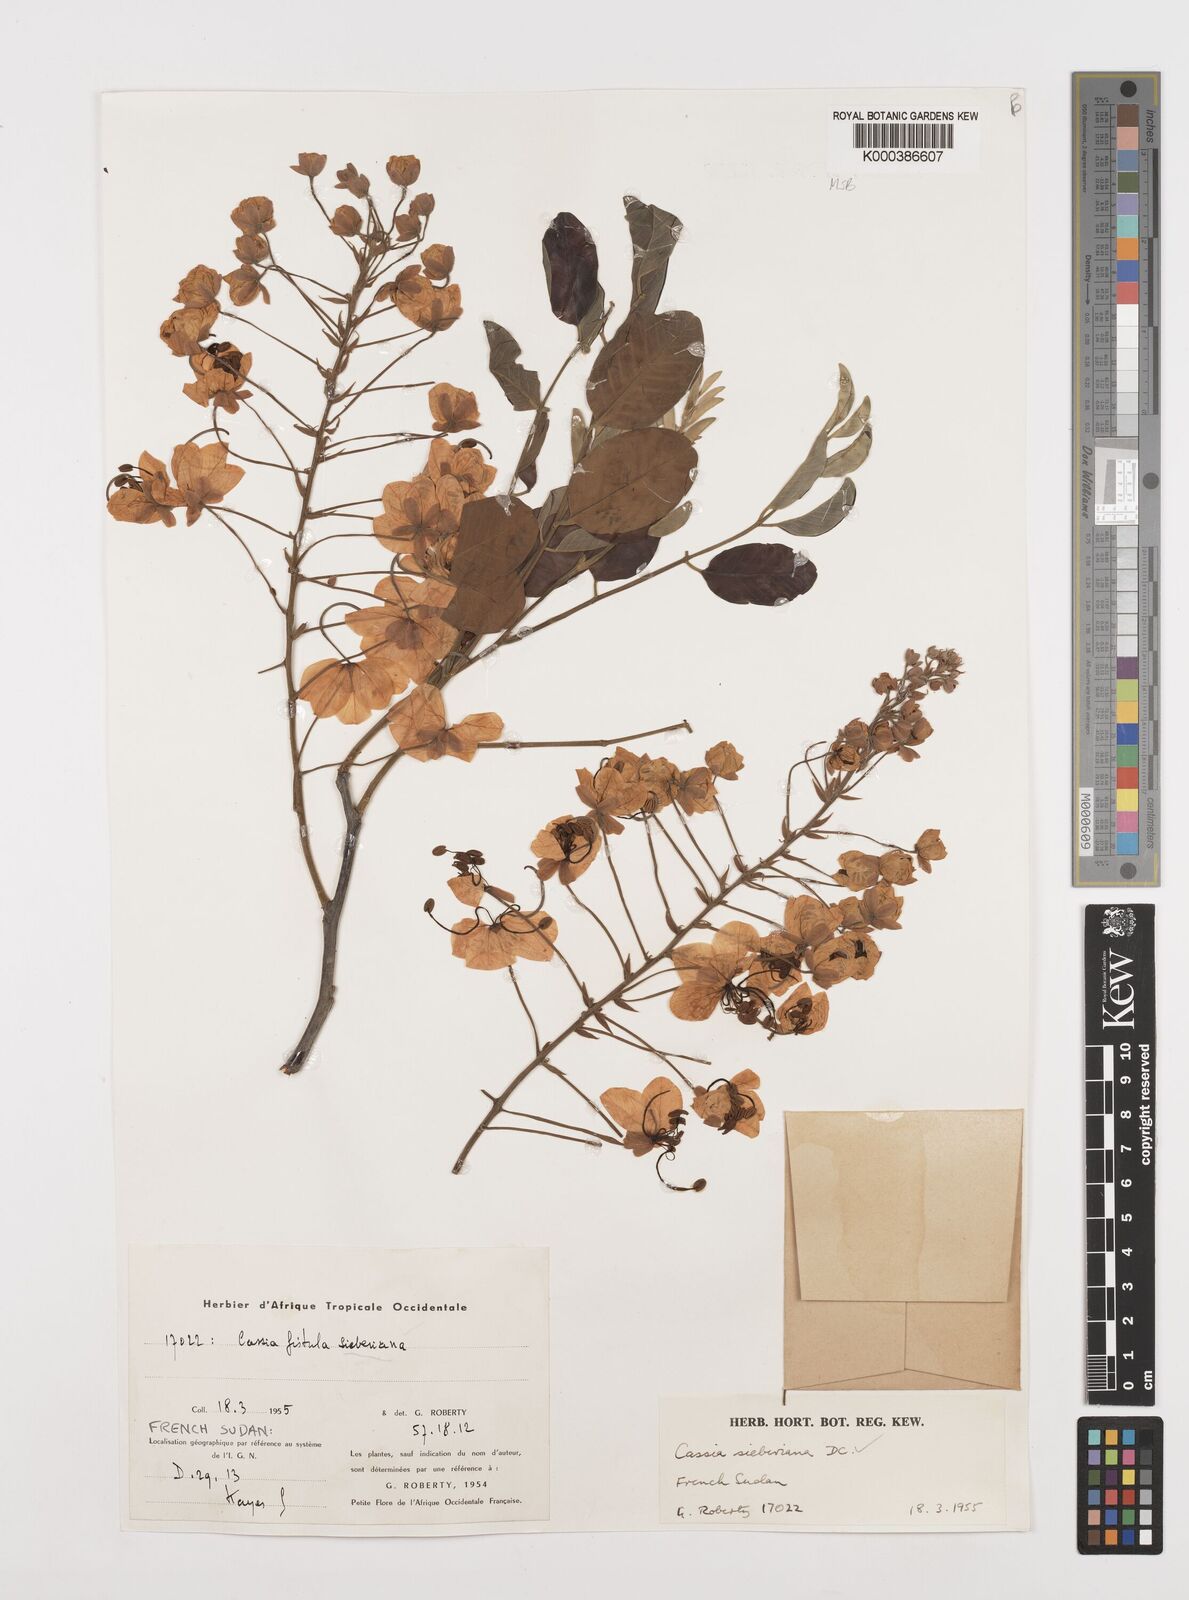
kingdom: Plantae
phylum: Tracheophyta
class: Magnoliopsida
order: Fabales
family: Fabaceae
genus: Cassia
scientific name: Cassia sieberiana
